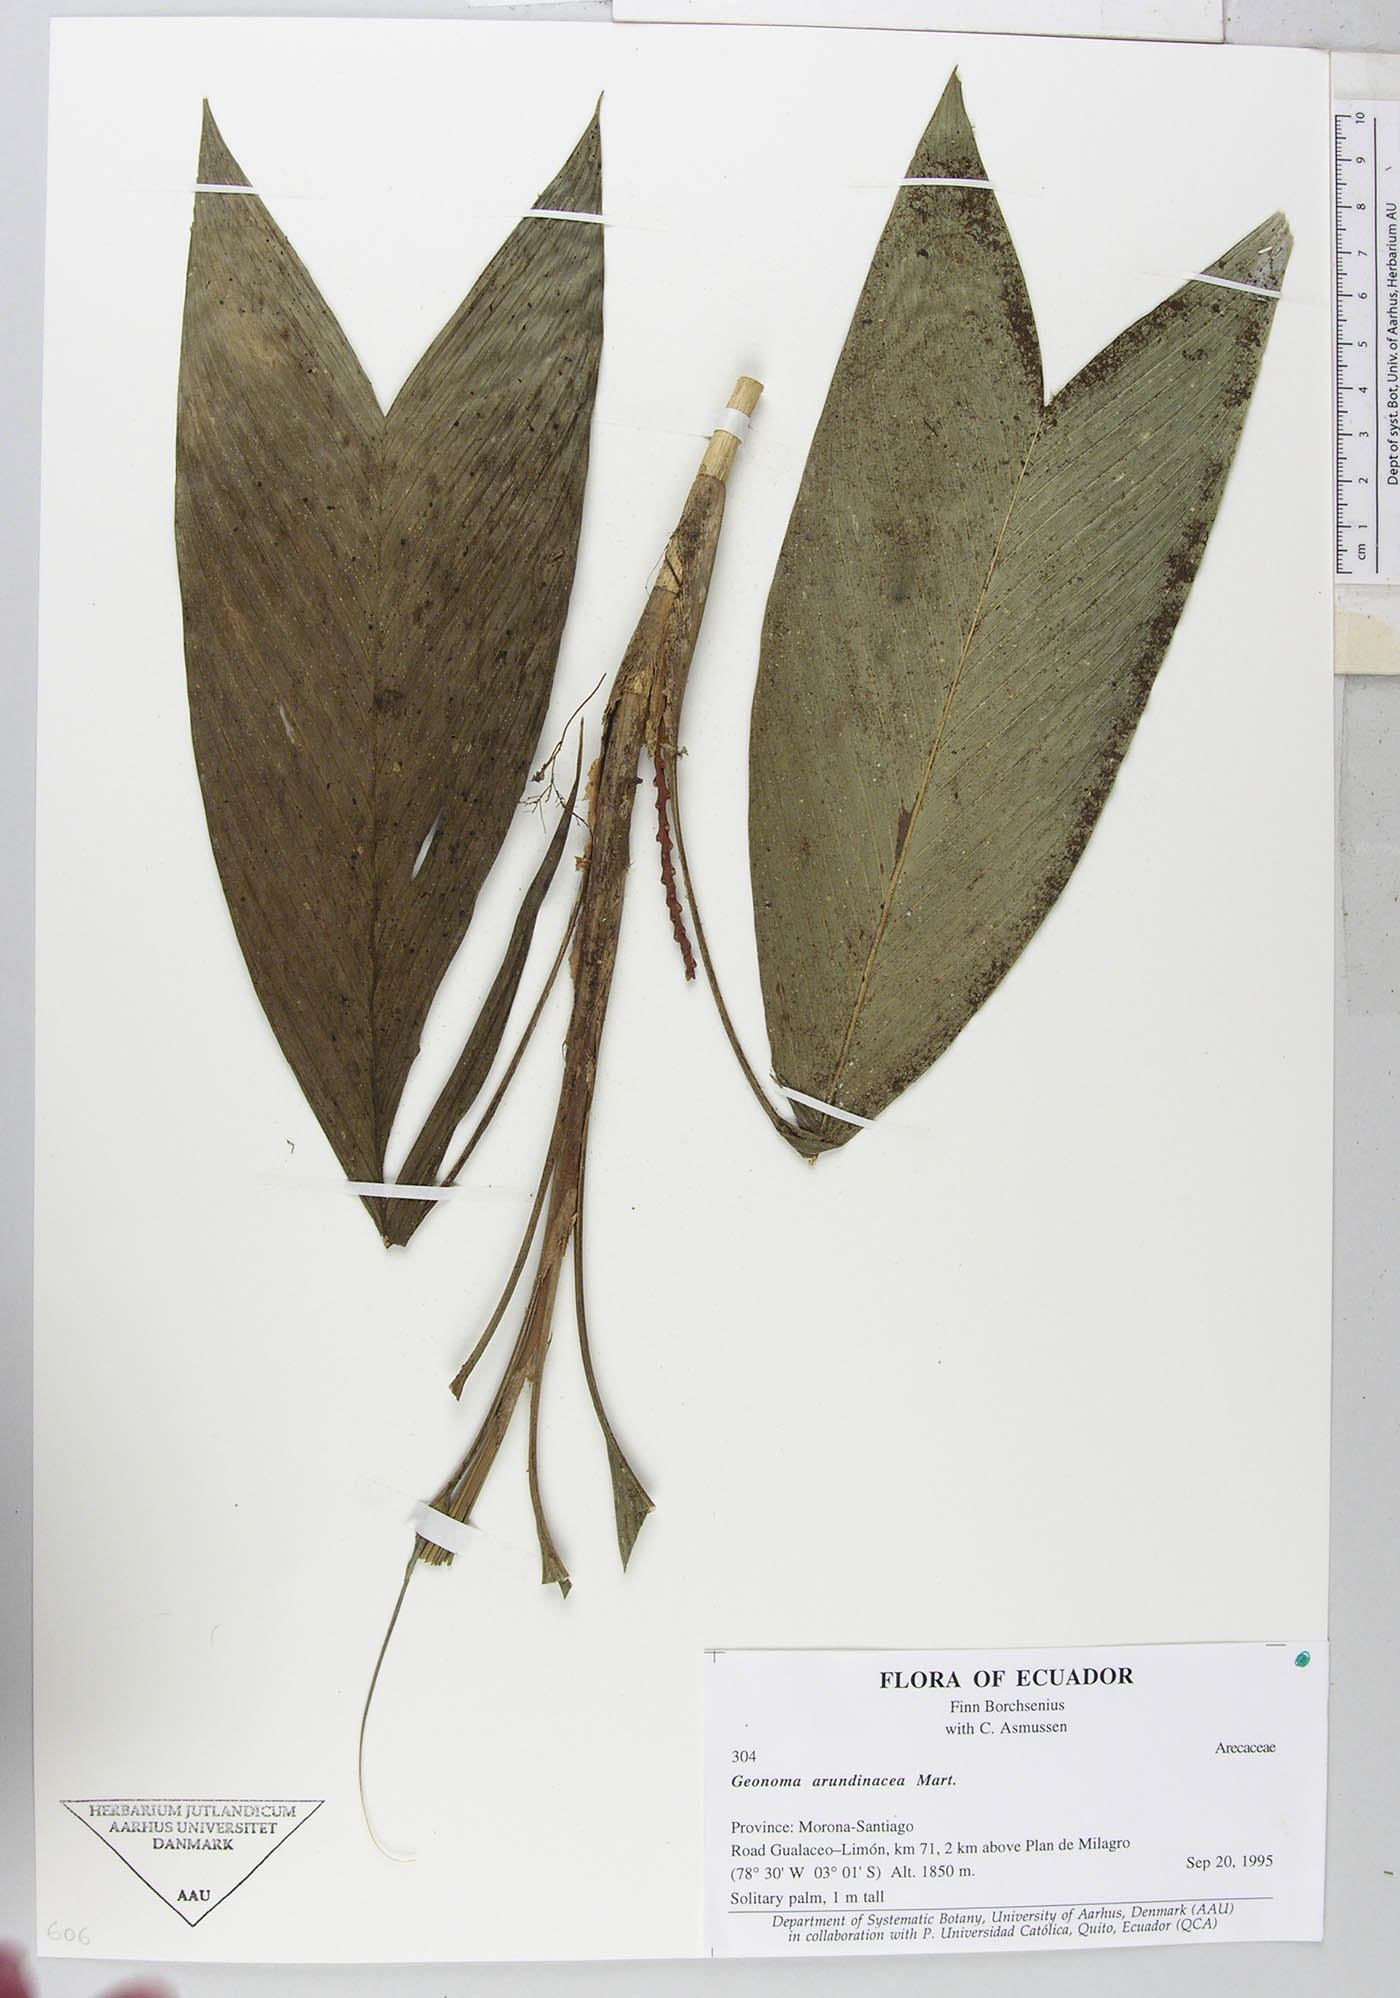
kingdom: Plantae
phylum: Tracheophyta
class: Liliopsida
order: Arecales
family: Arecaceae
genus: Geonoma
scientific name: Geonoma stricta
